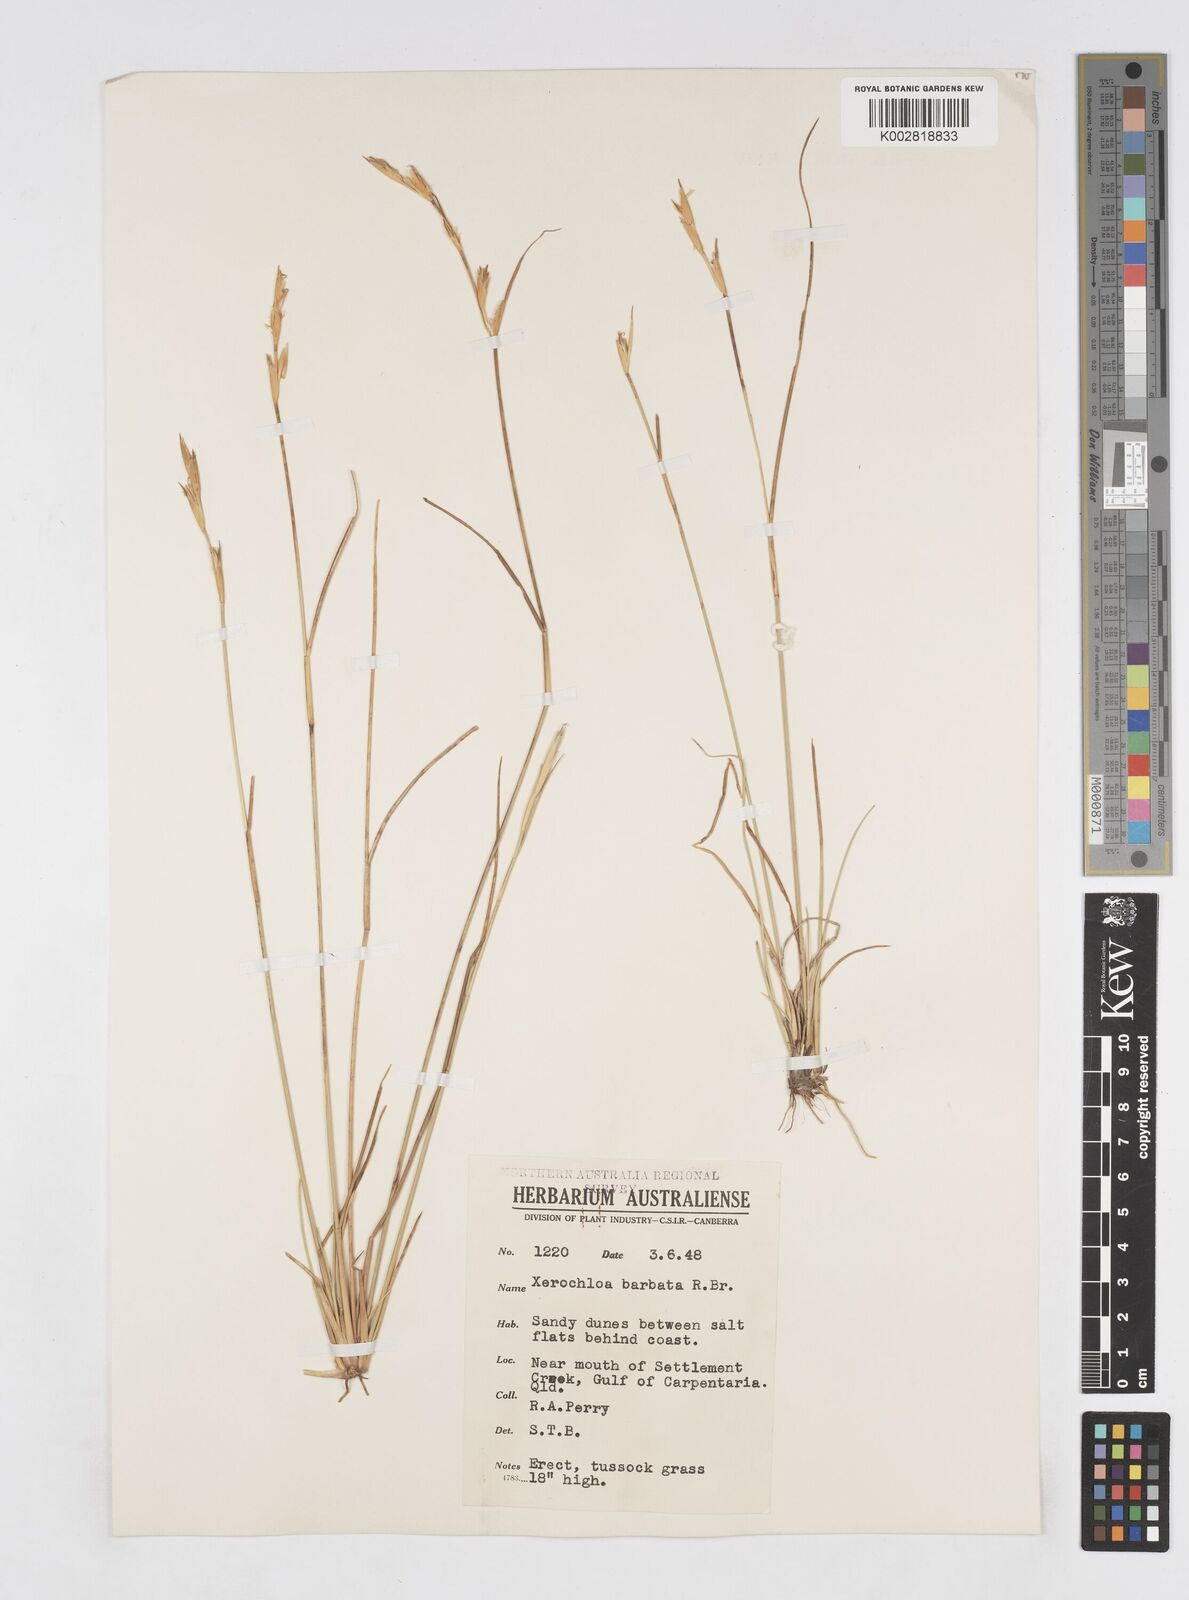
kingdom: Plantae
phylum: Tracheophyta
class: Liliopsida
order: Poales
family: Poaceae
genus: Xerochloa
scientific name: Xerochloa barbata
